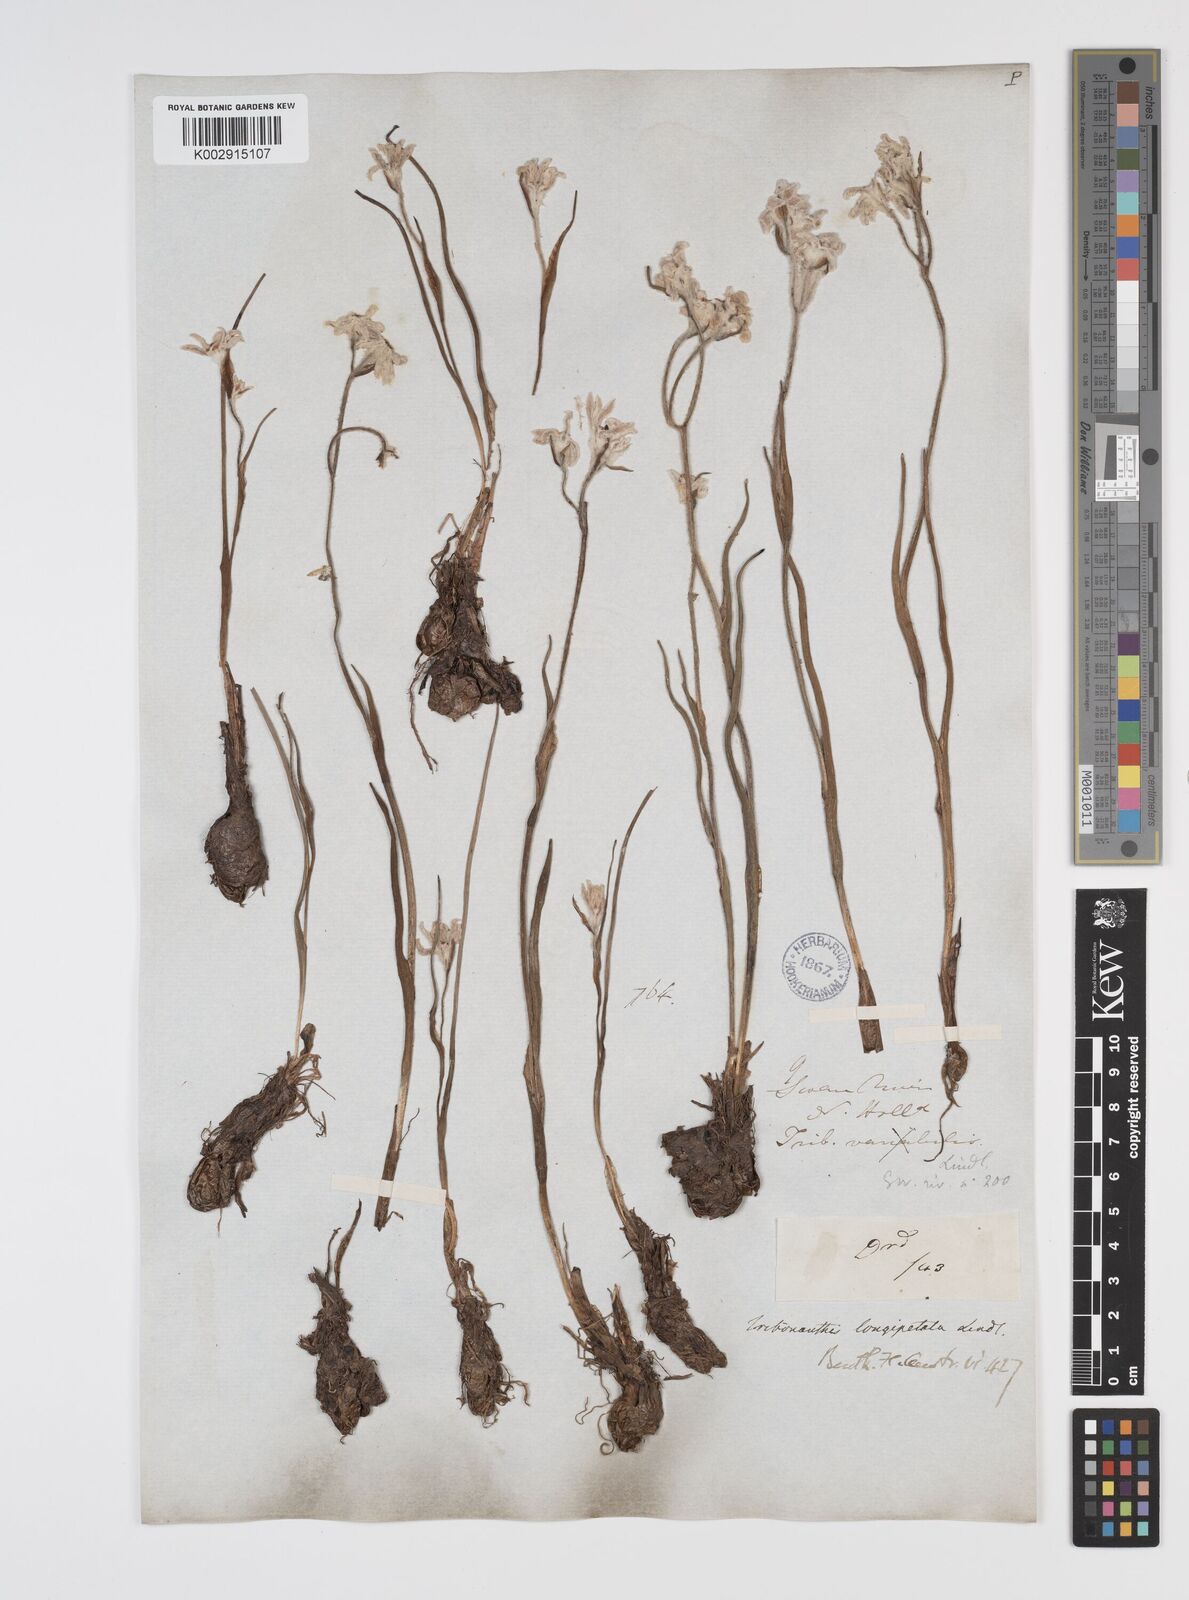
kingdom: Plantae
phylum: Tracheophyta
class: Liliopsida
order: Commelinales
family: Haemodoraceae
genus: Tribonanthes
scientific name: Tribonanthes longipetala
